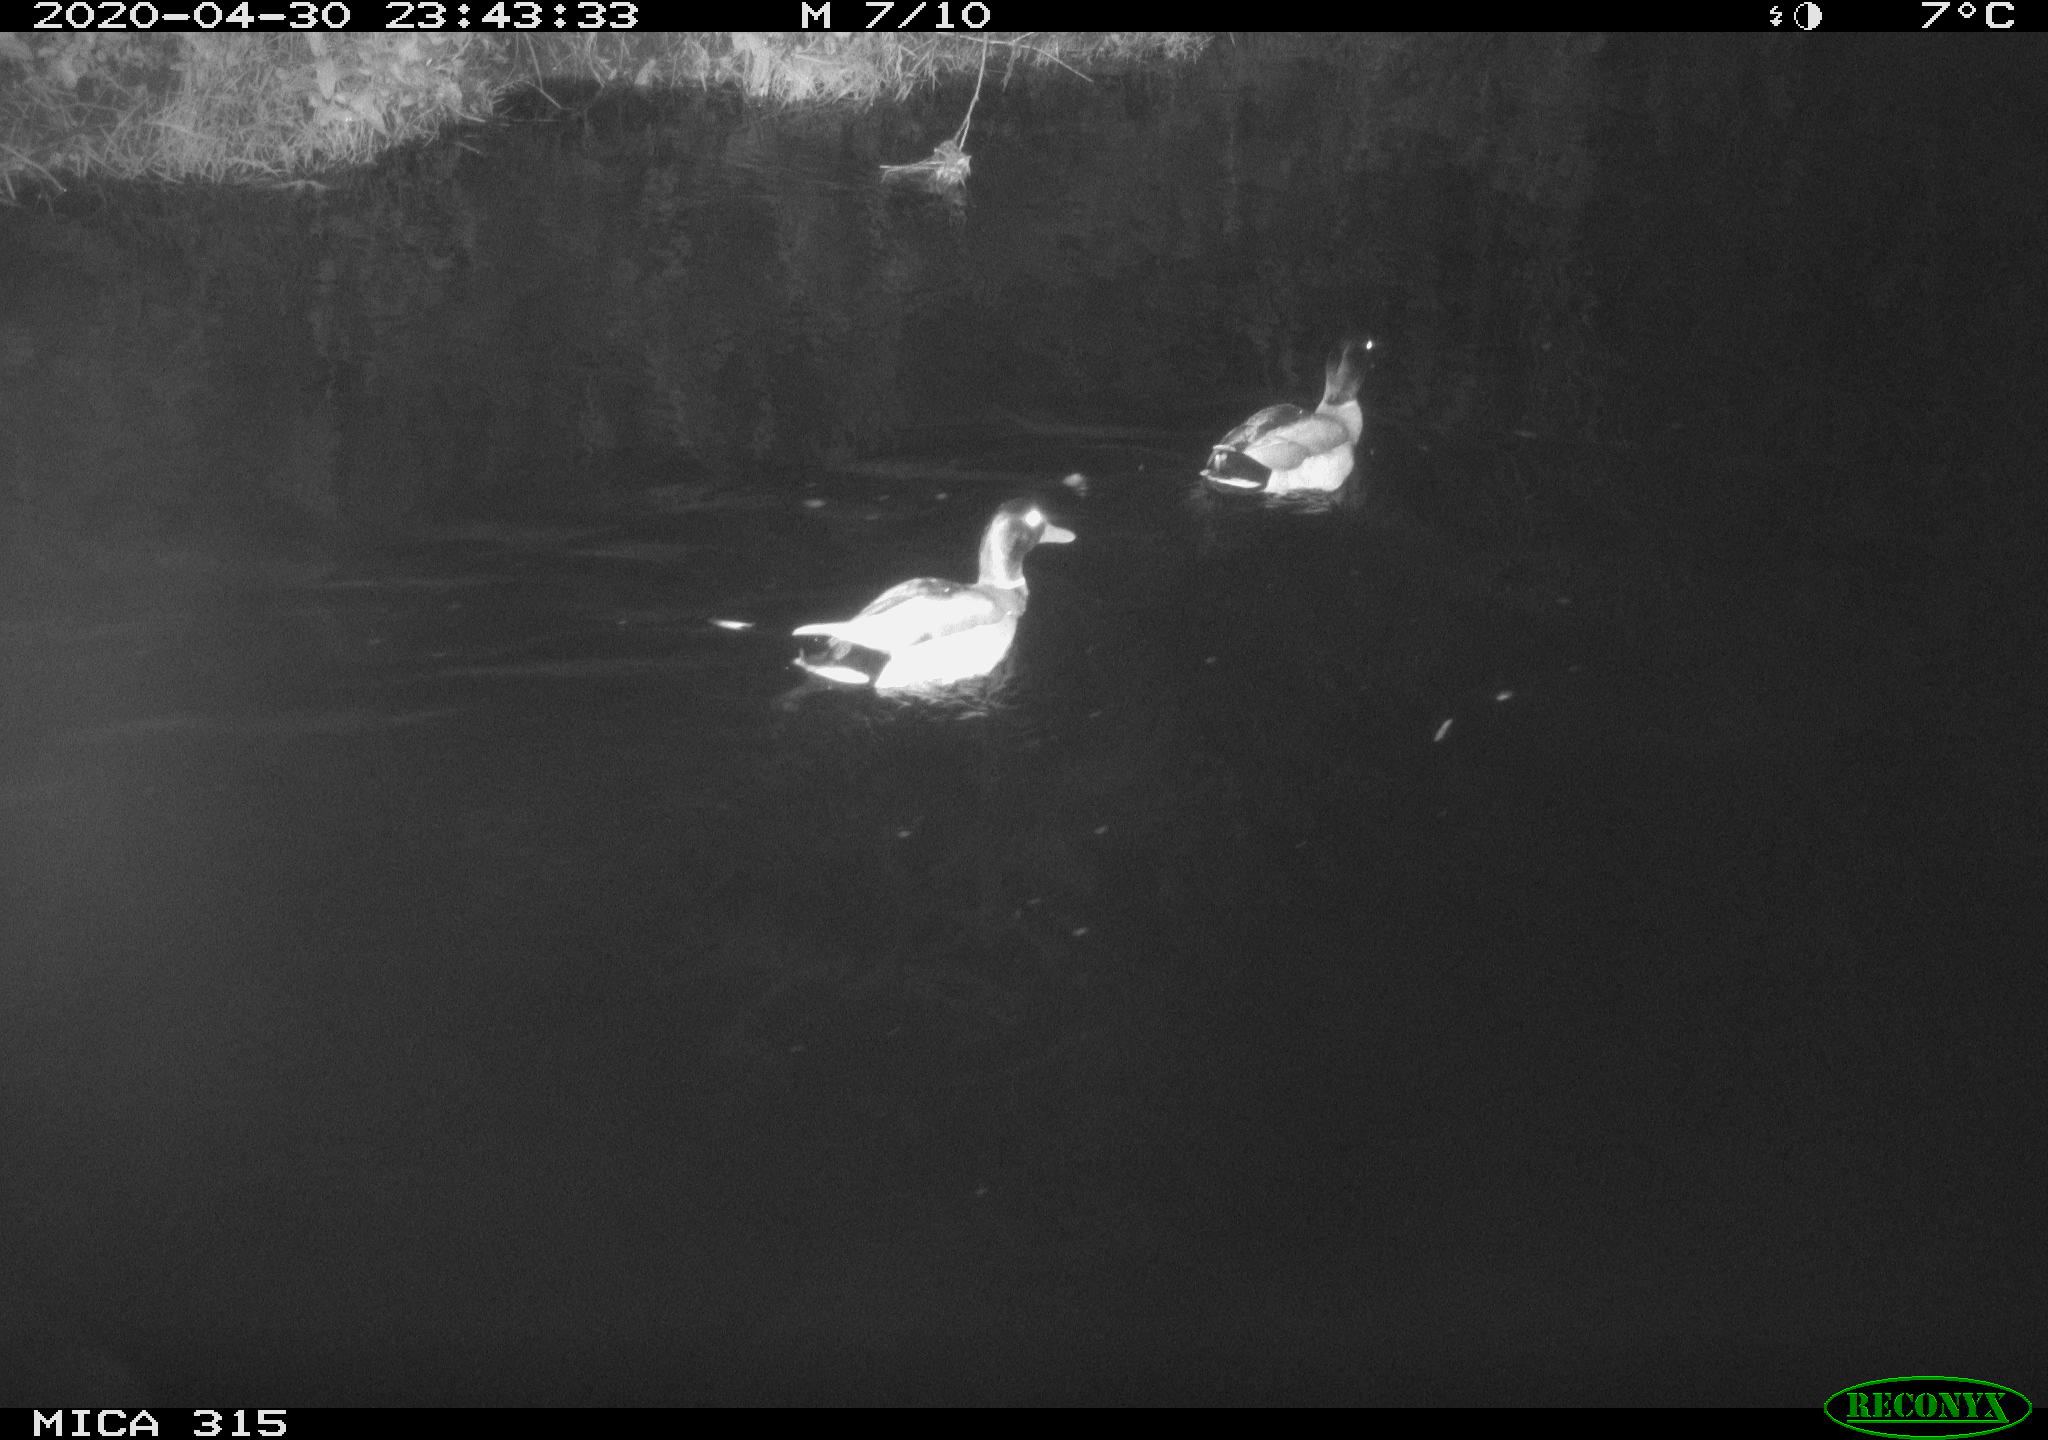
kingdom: Animalia
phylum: Chordata
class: Aves
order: Anseriformes
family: Anatidae
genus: Anas
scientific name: Anas platyrhynchos
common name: Mallard
